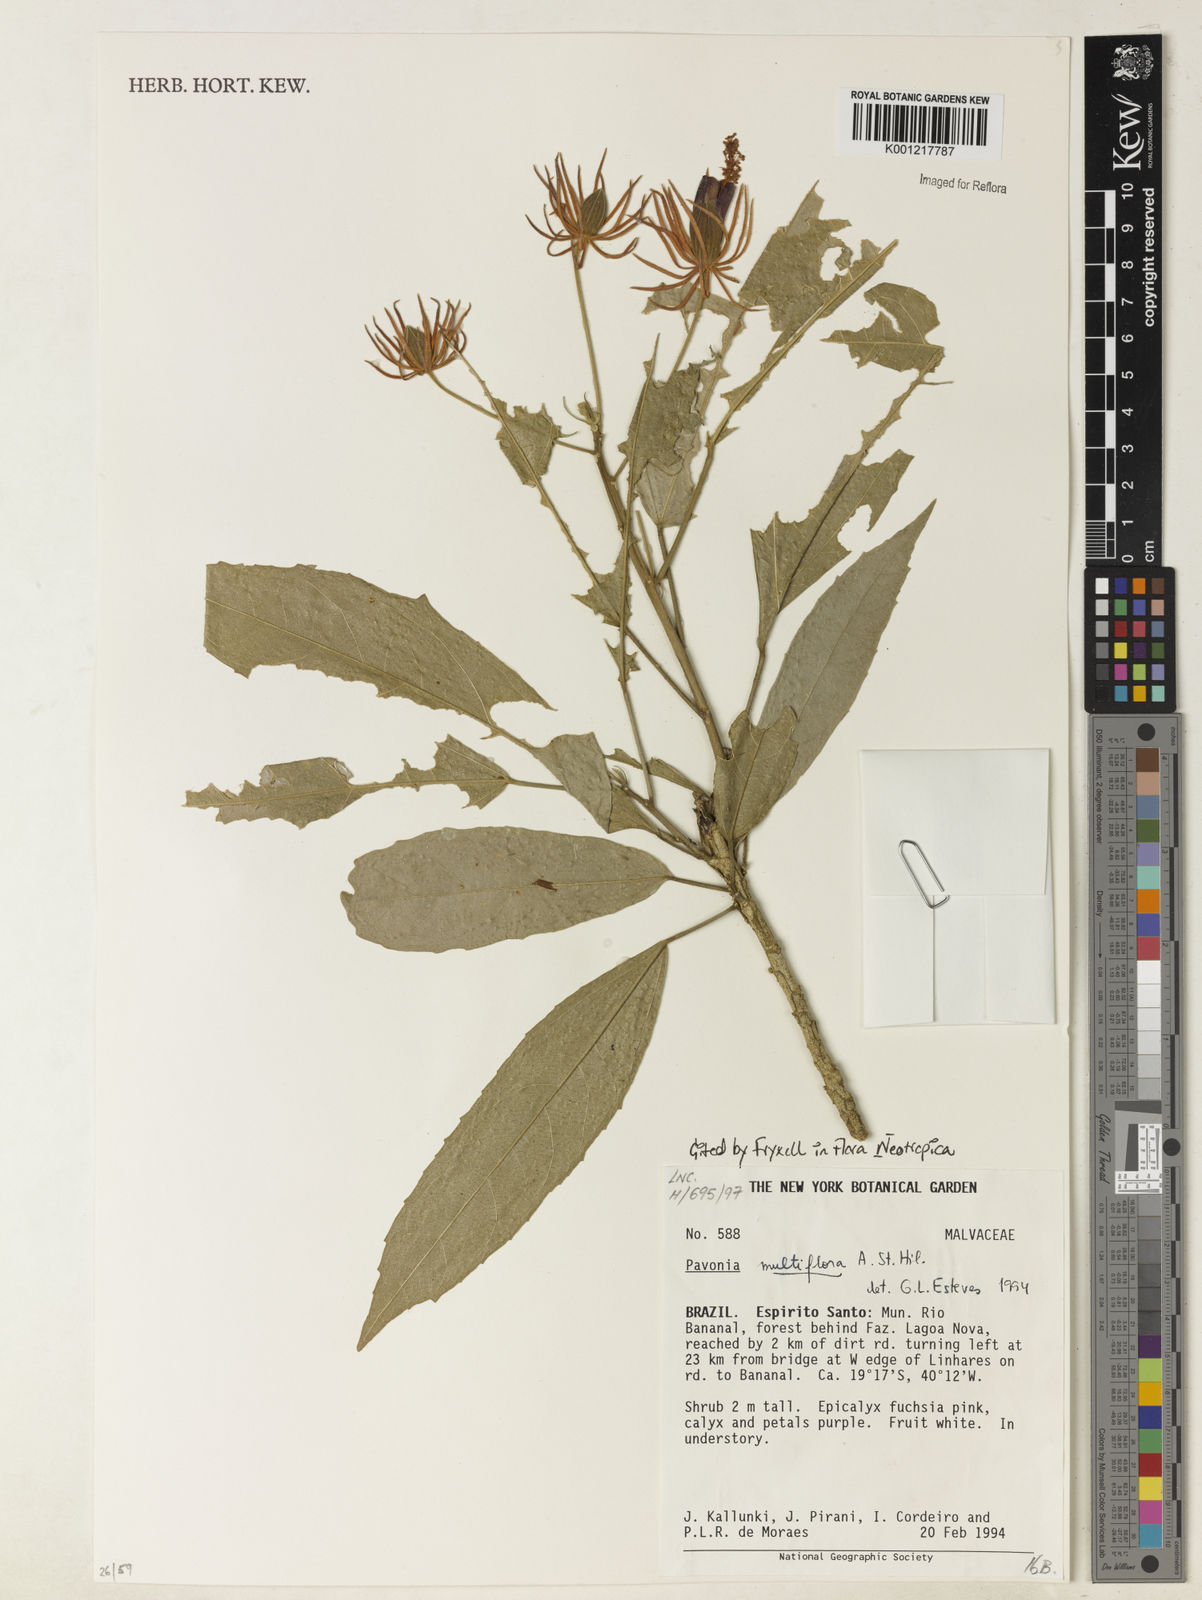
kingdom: Plantae
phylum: Tracheophyta
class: Magnoliopsida
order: Malvales
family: Malvaceae
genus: Pavonia
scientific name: Pavonia multiflora
